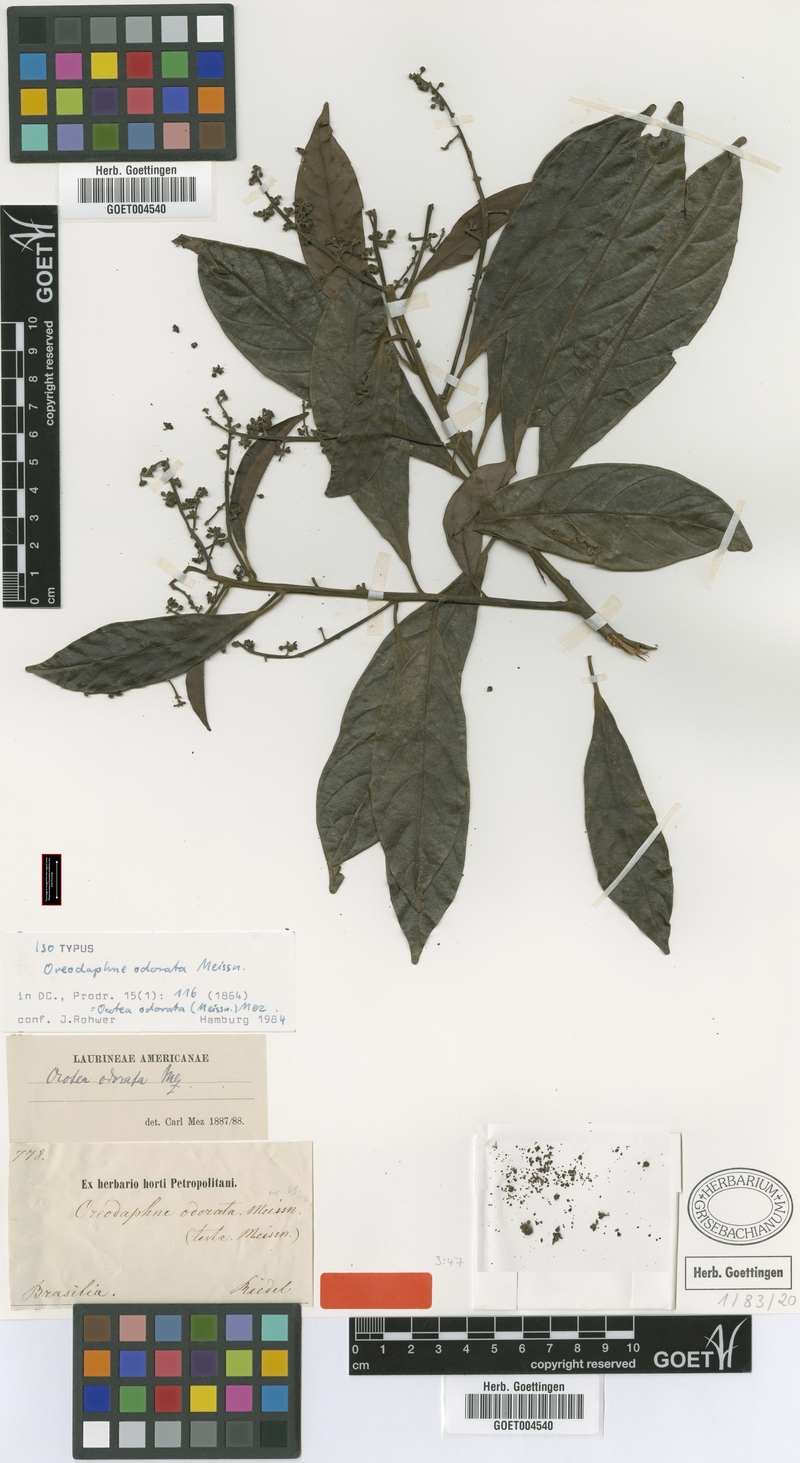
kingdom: Plantae
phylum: Tracheophyta
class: Magnoliopsida
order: Laurales
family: Lauraceae
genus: Ocotea
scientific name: Ocotea odorata
